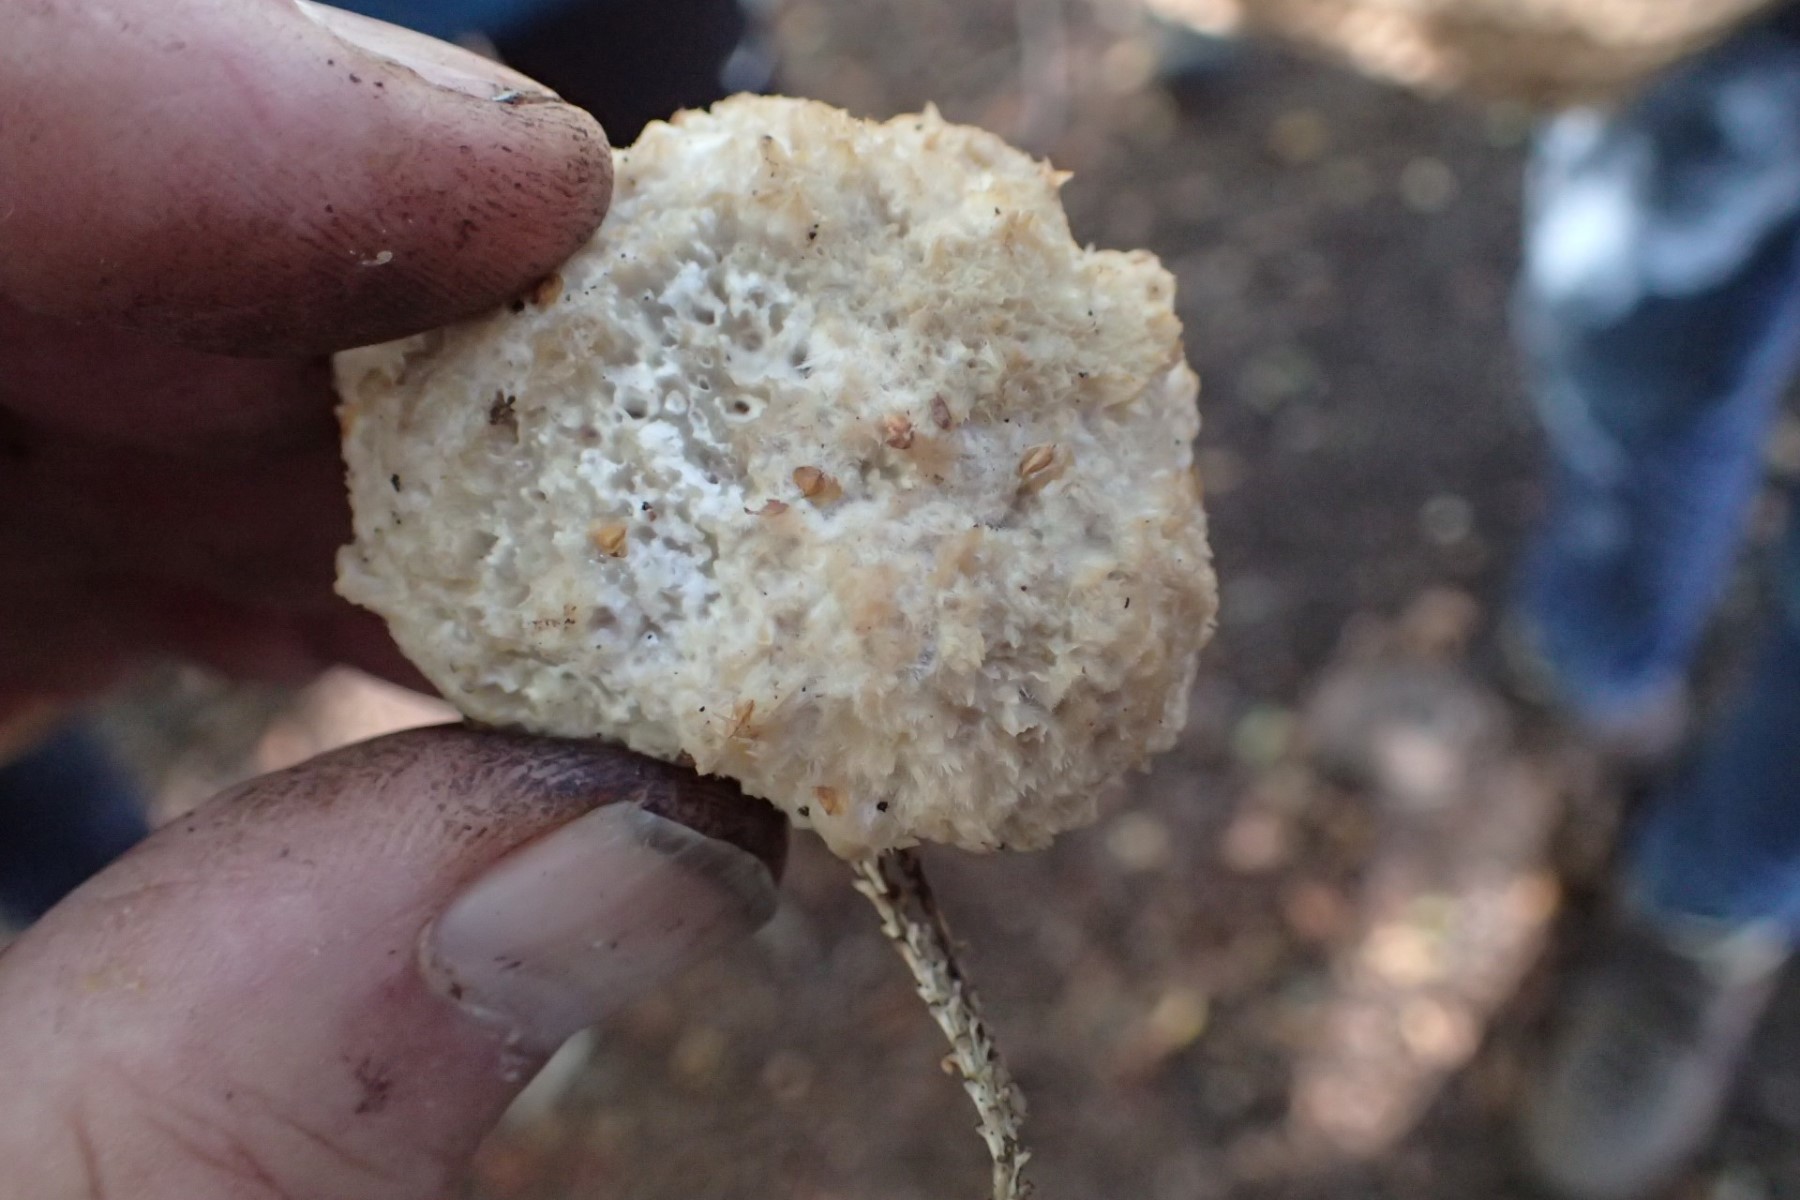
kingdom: Fungi
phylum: Basidiomycota
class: Agaricomycetes
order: Polyporales
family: Dacryobolaceae
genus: Postia
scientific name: Postia ptychogaster
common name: støvende kødporesvamp
